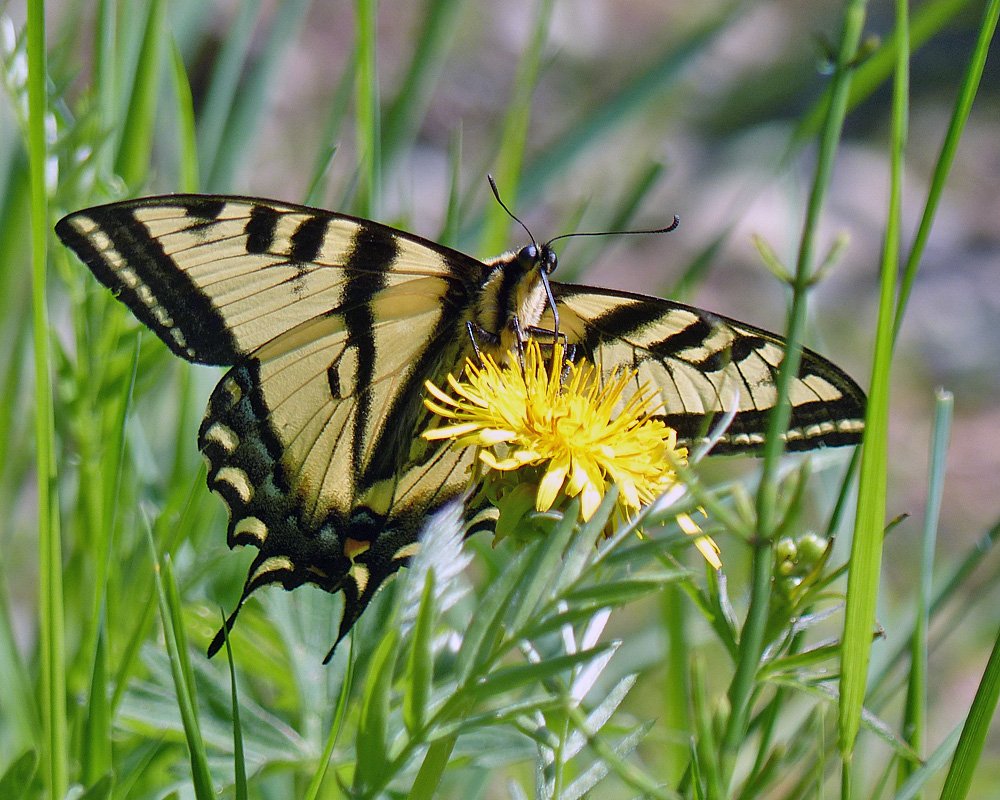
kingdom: Animalia
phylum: Arthropoda
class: Insecta
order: Lepidoptera
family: Papilionidae
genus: Pterourus
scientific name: Pterourus rutulus
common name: Western Tiger Swallowtail
